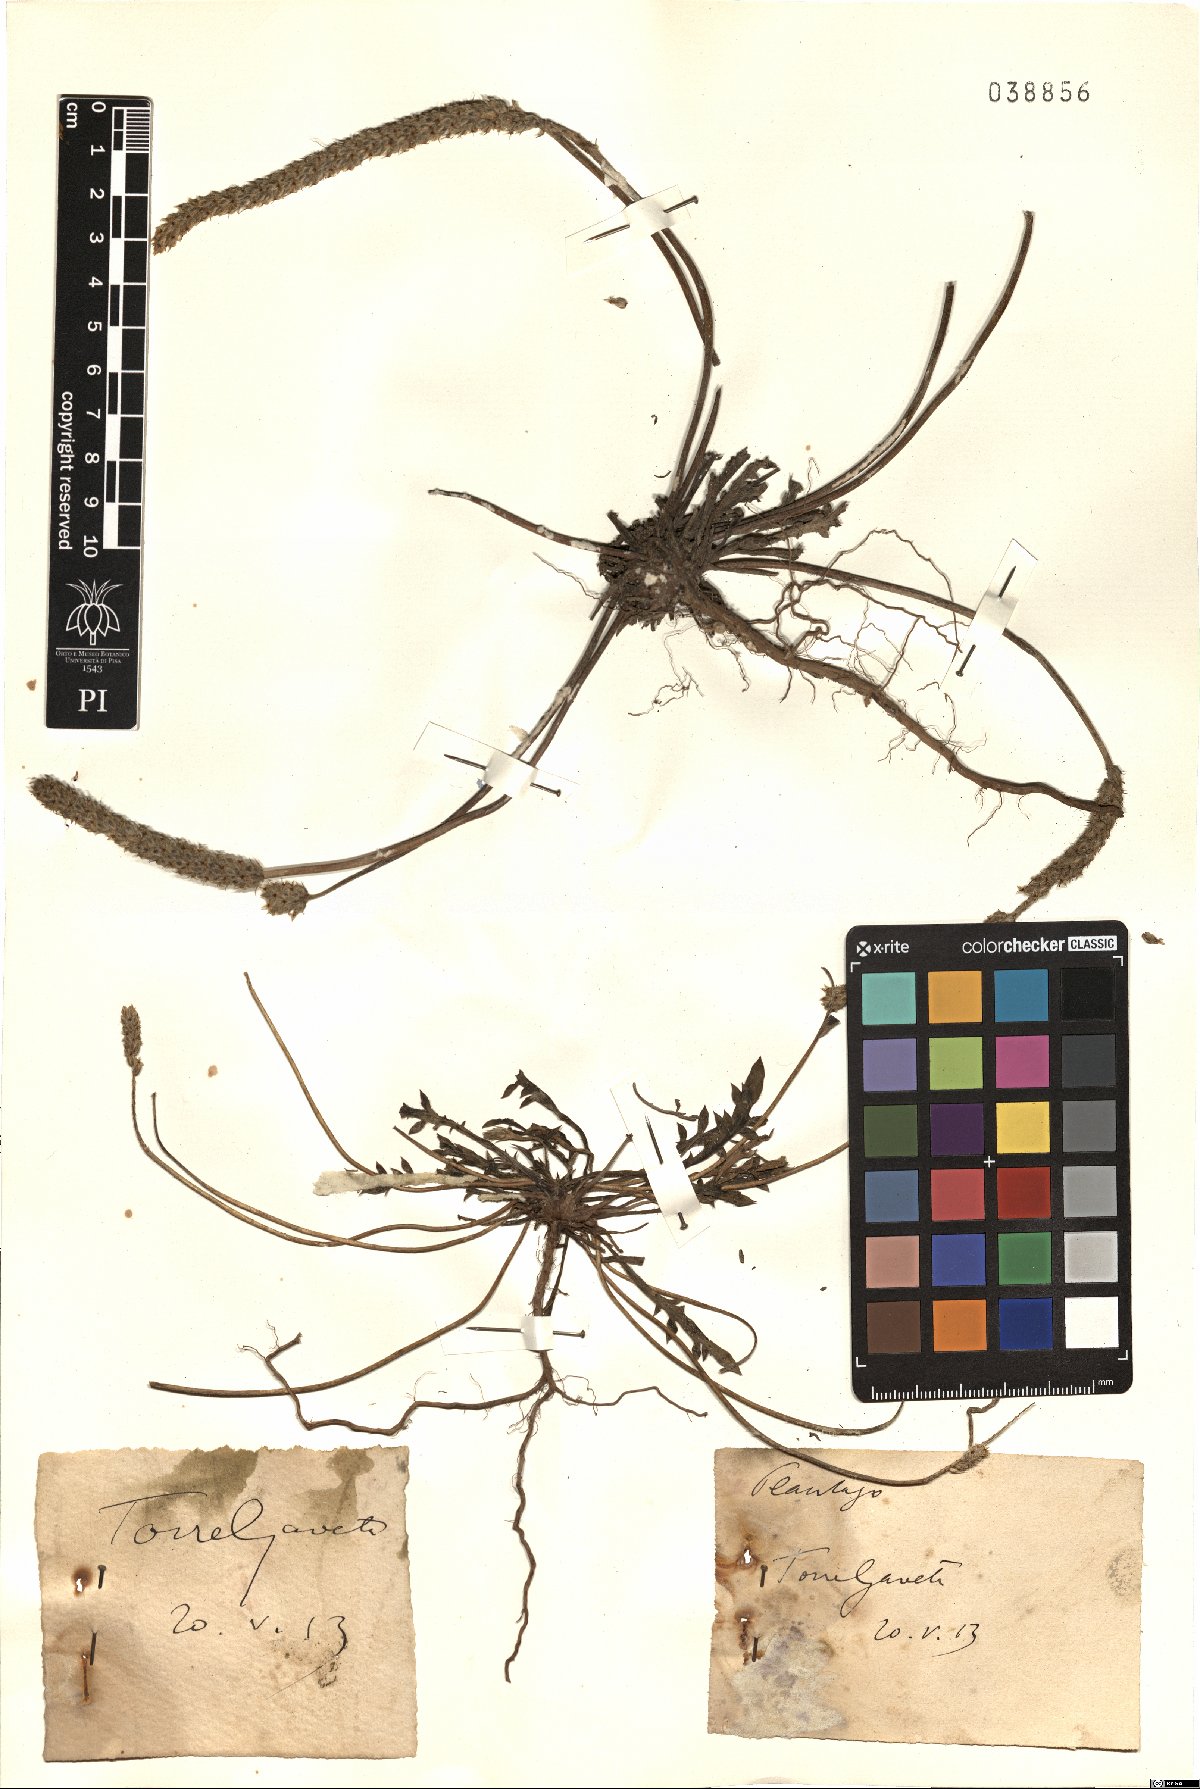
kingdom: Plantae
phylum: Tracheophyta
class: Magnoliopsida
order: Lamiales
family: Plantaginaceae
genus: Plantago
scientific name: Plantago
